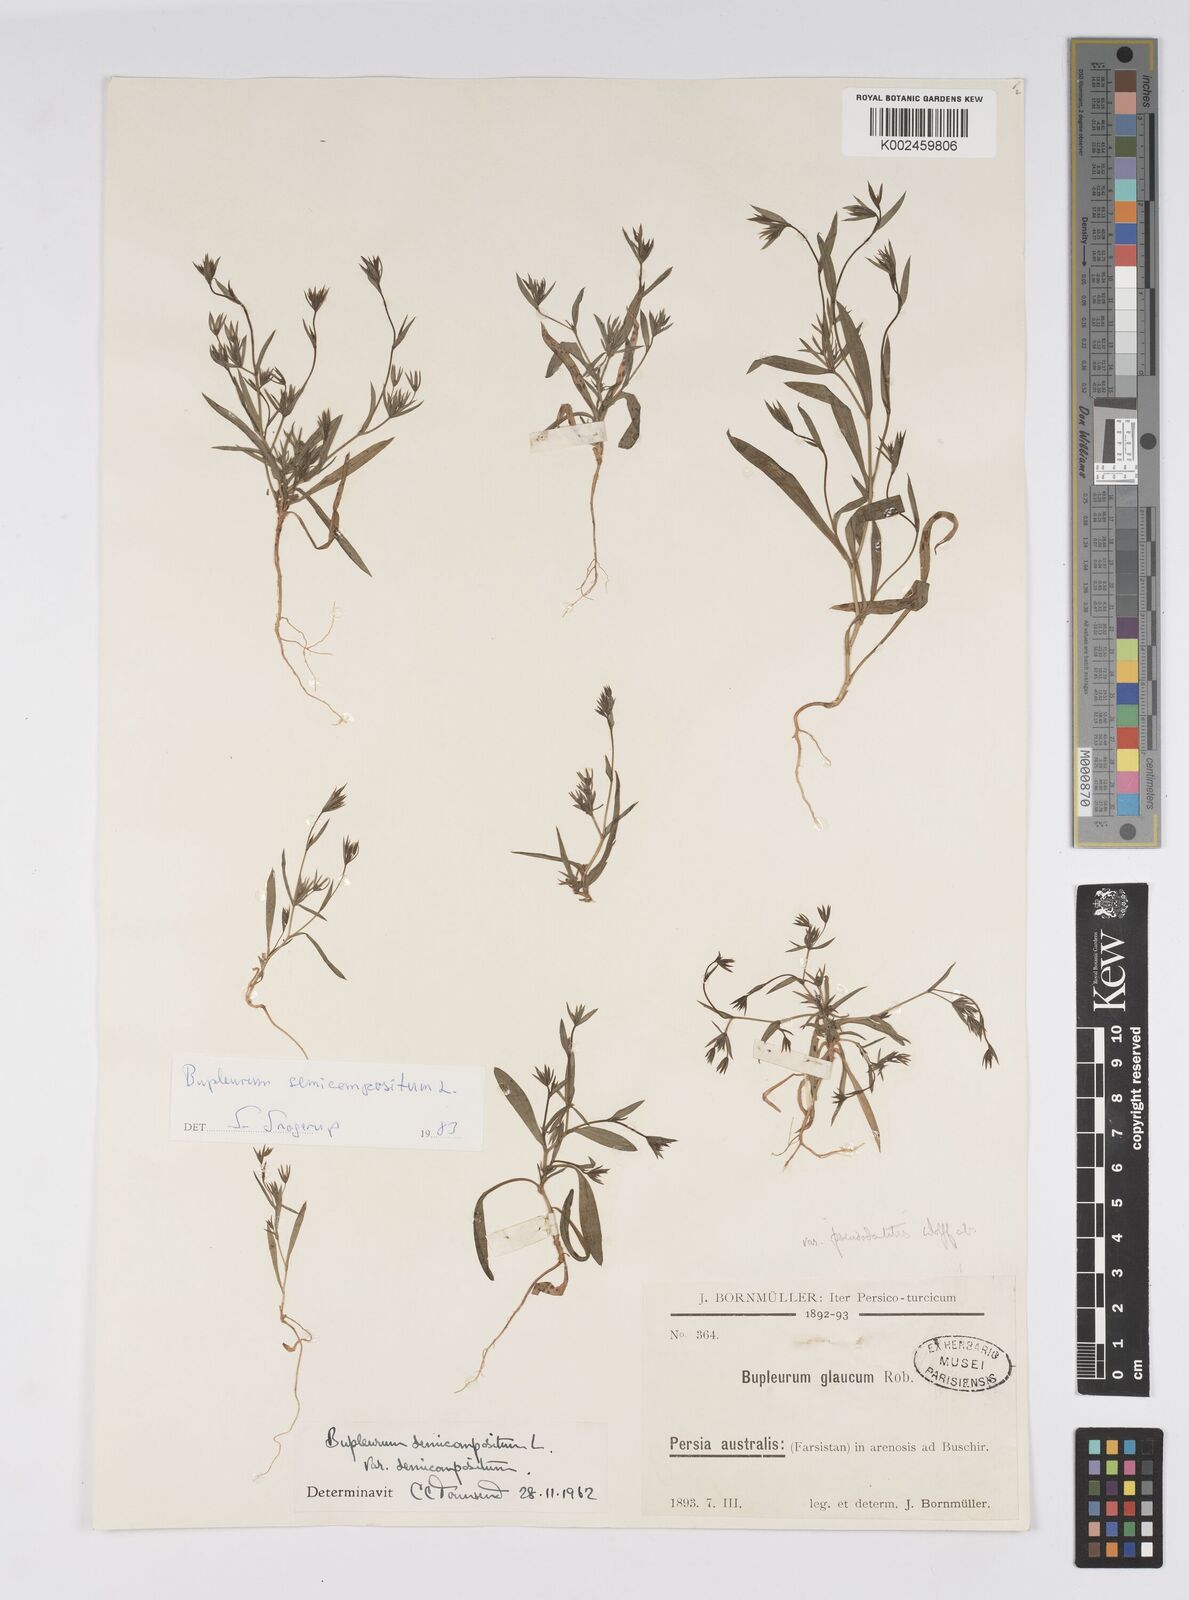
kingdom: Plantae
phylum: Tracheophyta
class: Magnoliopsida
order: Apiales
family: Apiaceae
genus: Bupleurum
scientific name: Bupleurum semicompositum
